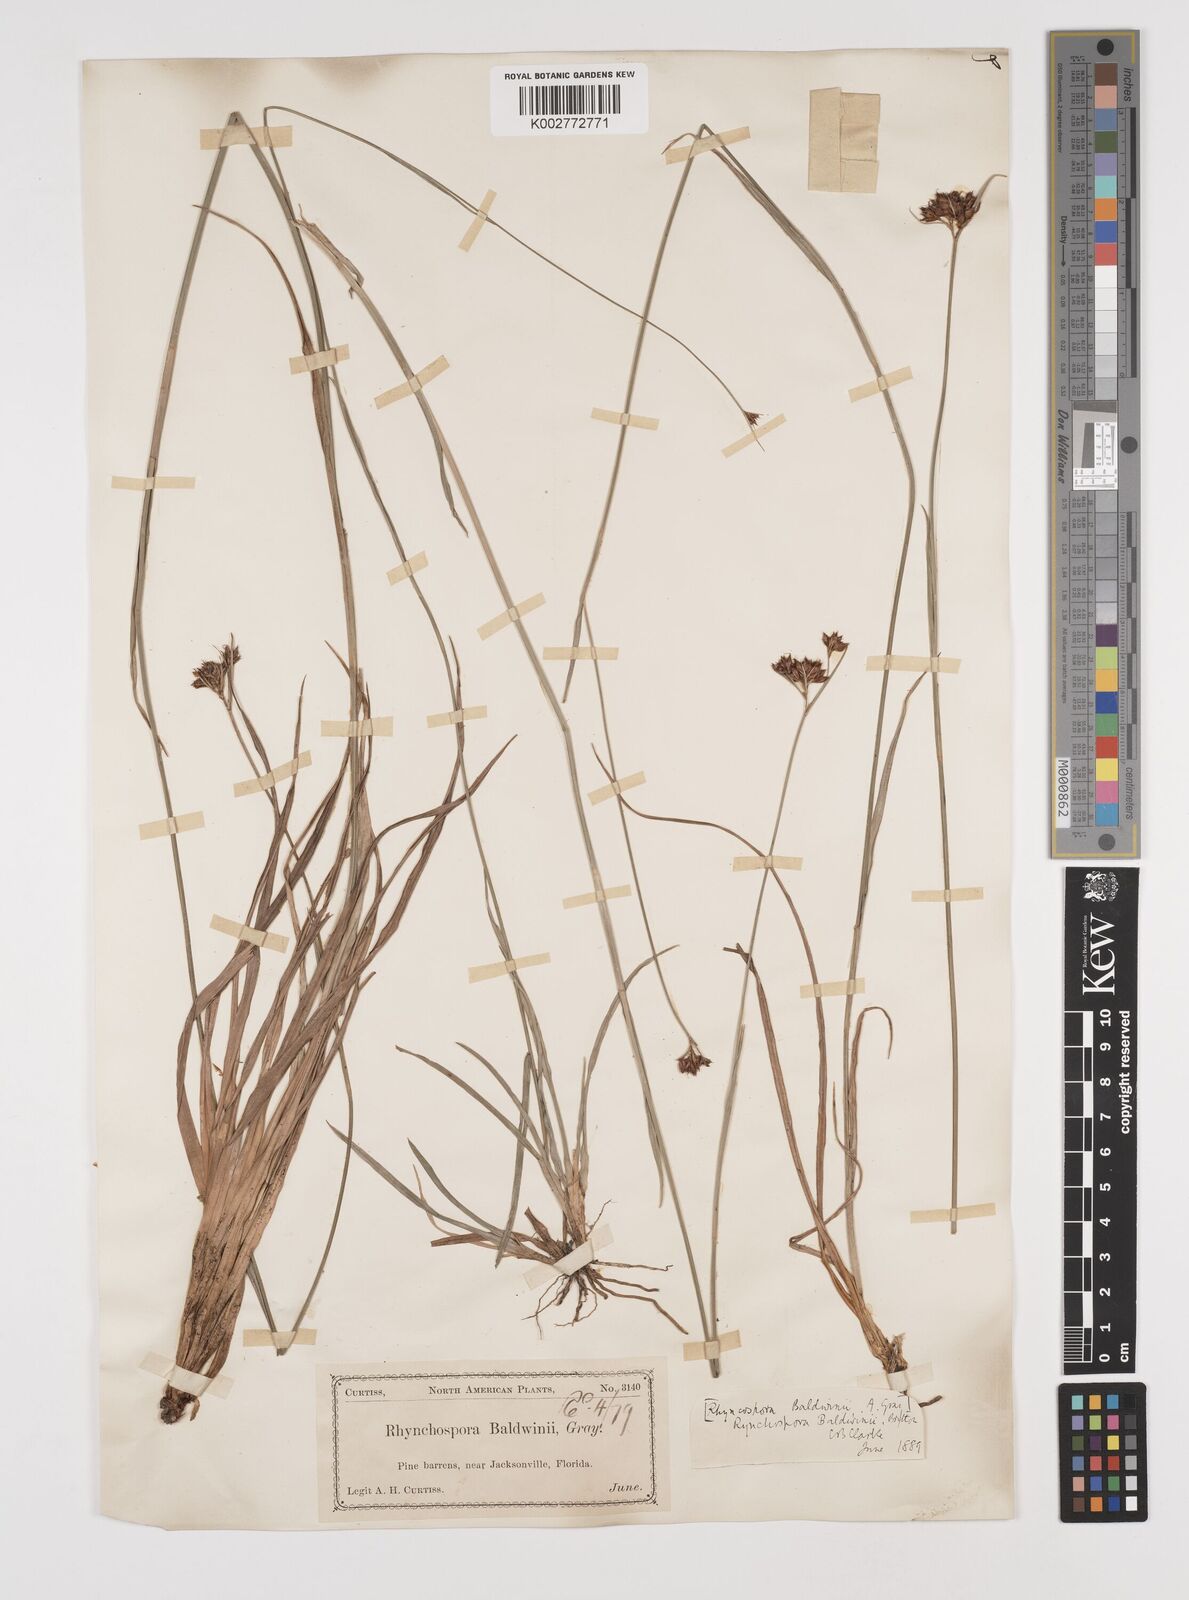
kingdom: Plantae
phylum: Tracheophyta
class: Liliopsida
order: Poales
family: Cyperaceae
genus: Rhynchospora
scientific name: Rhynchospora baldwinii
